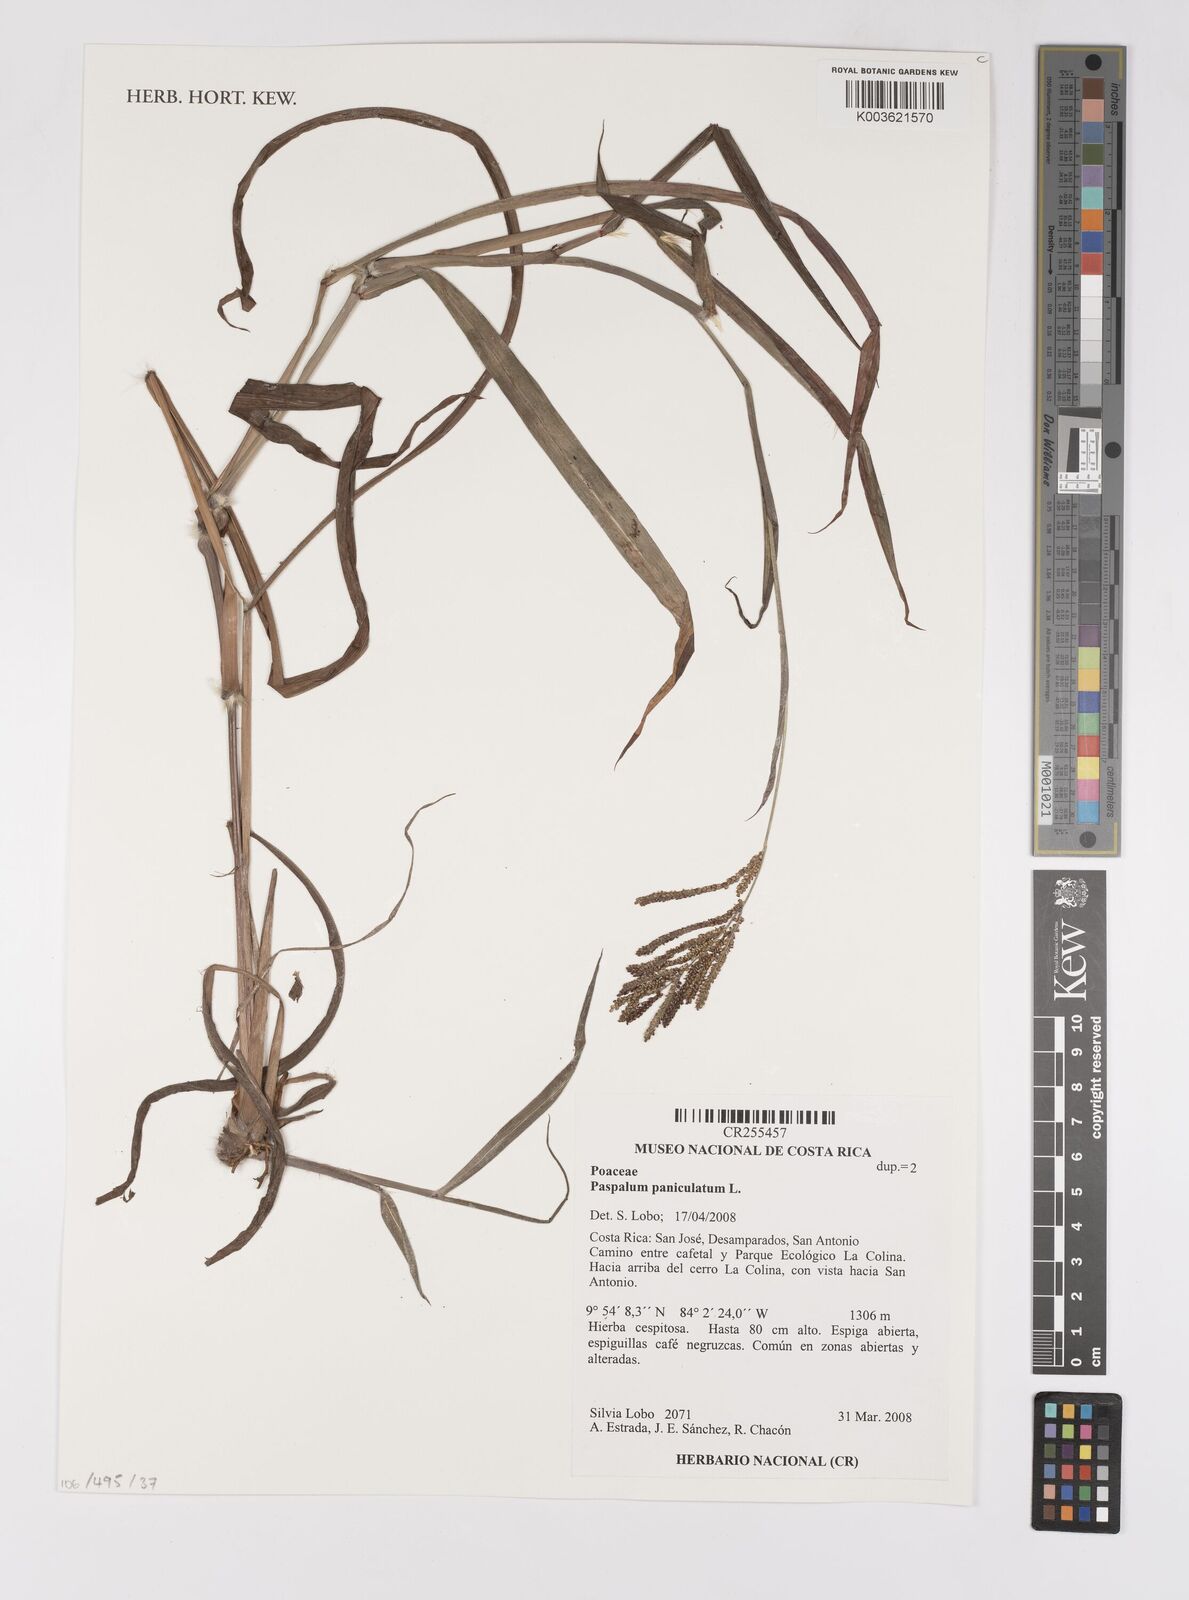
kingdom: Plantae
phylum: Tracheophyta
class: Liliopsida
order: Poales
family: Poaceae
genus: Paspalum
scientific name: Paspalum paniculatum
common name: Arrocillo
